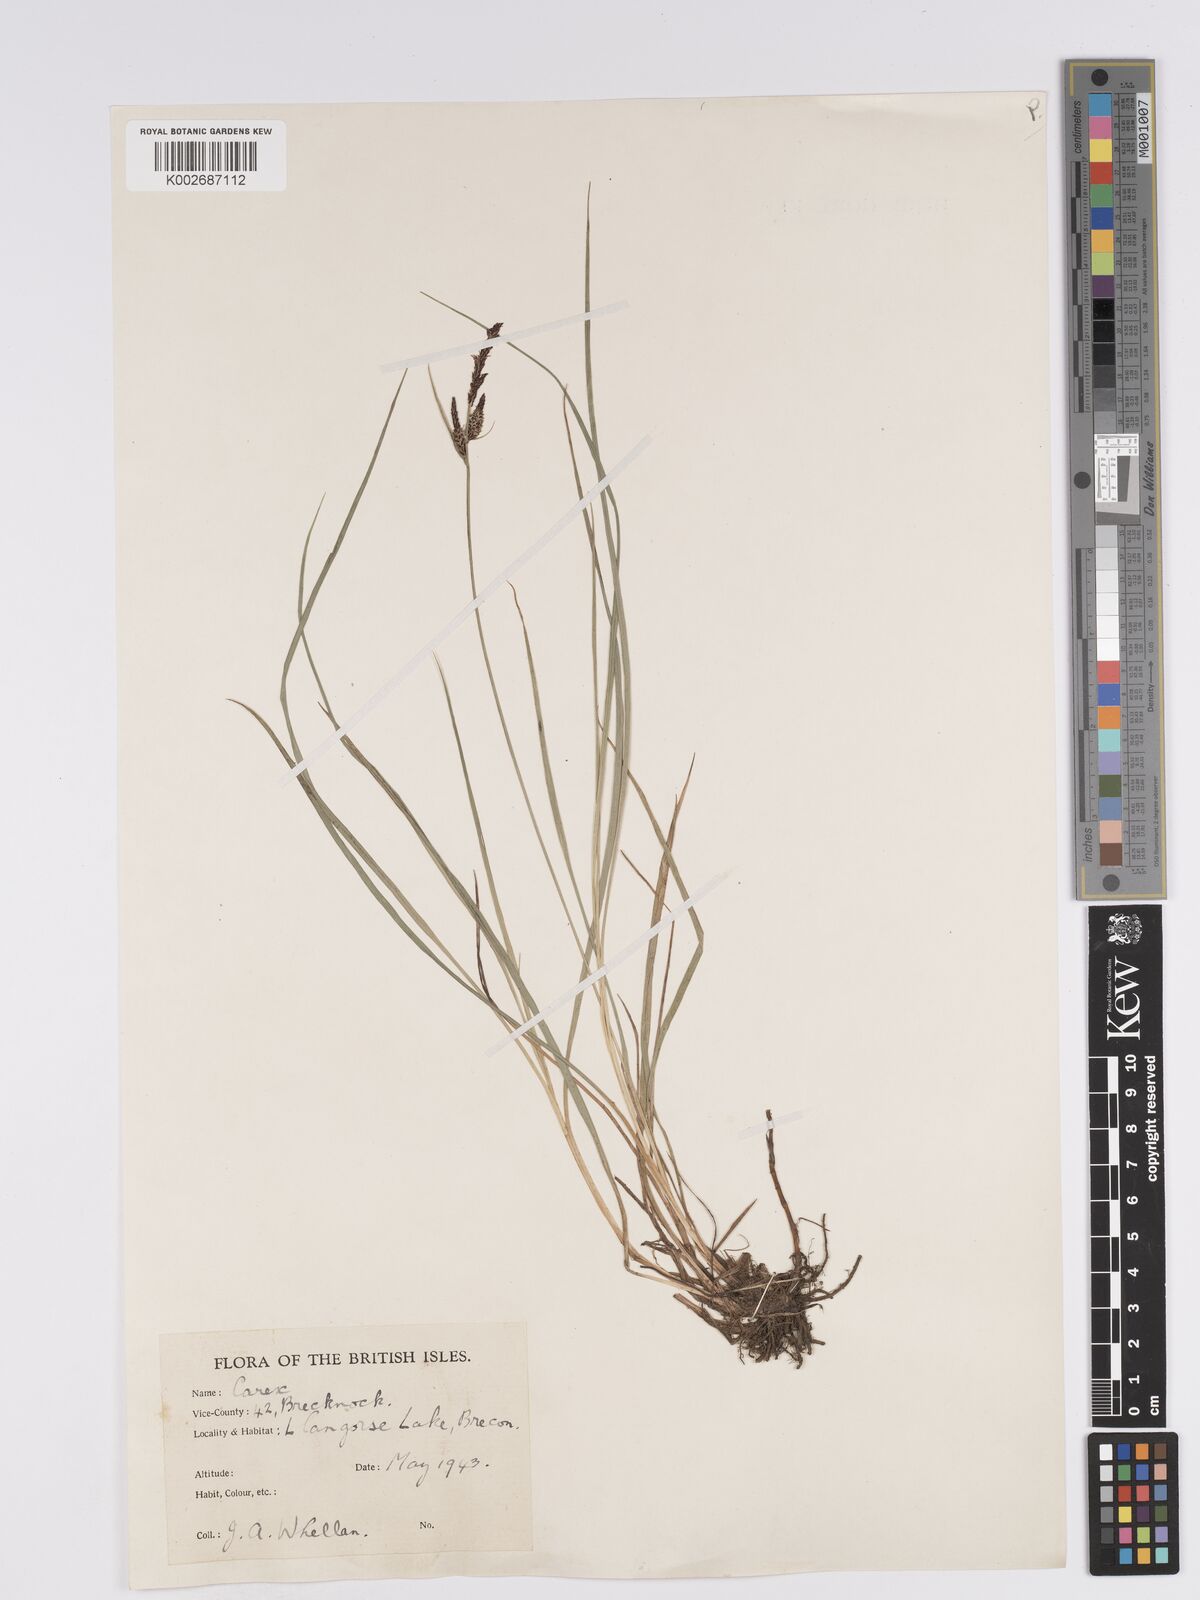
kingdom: Plantae
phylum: Tracheophyta
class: Liliopsida
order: Poales
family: Cyperaceae
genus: Carex
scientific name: Carex nigra
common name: Common sedge
